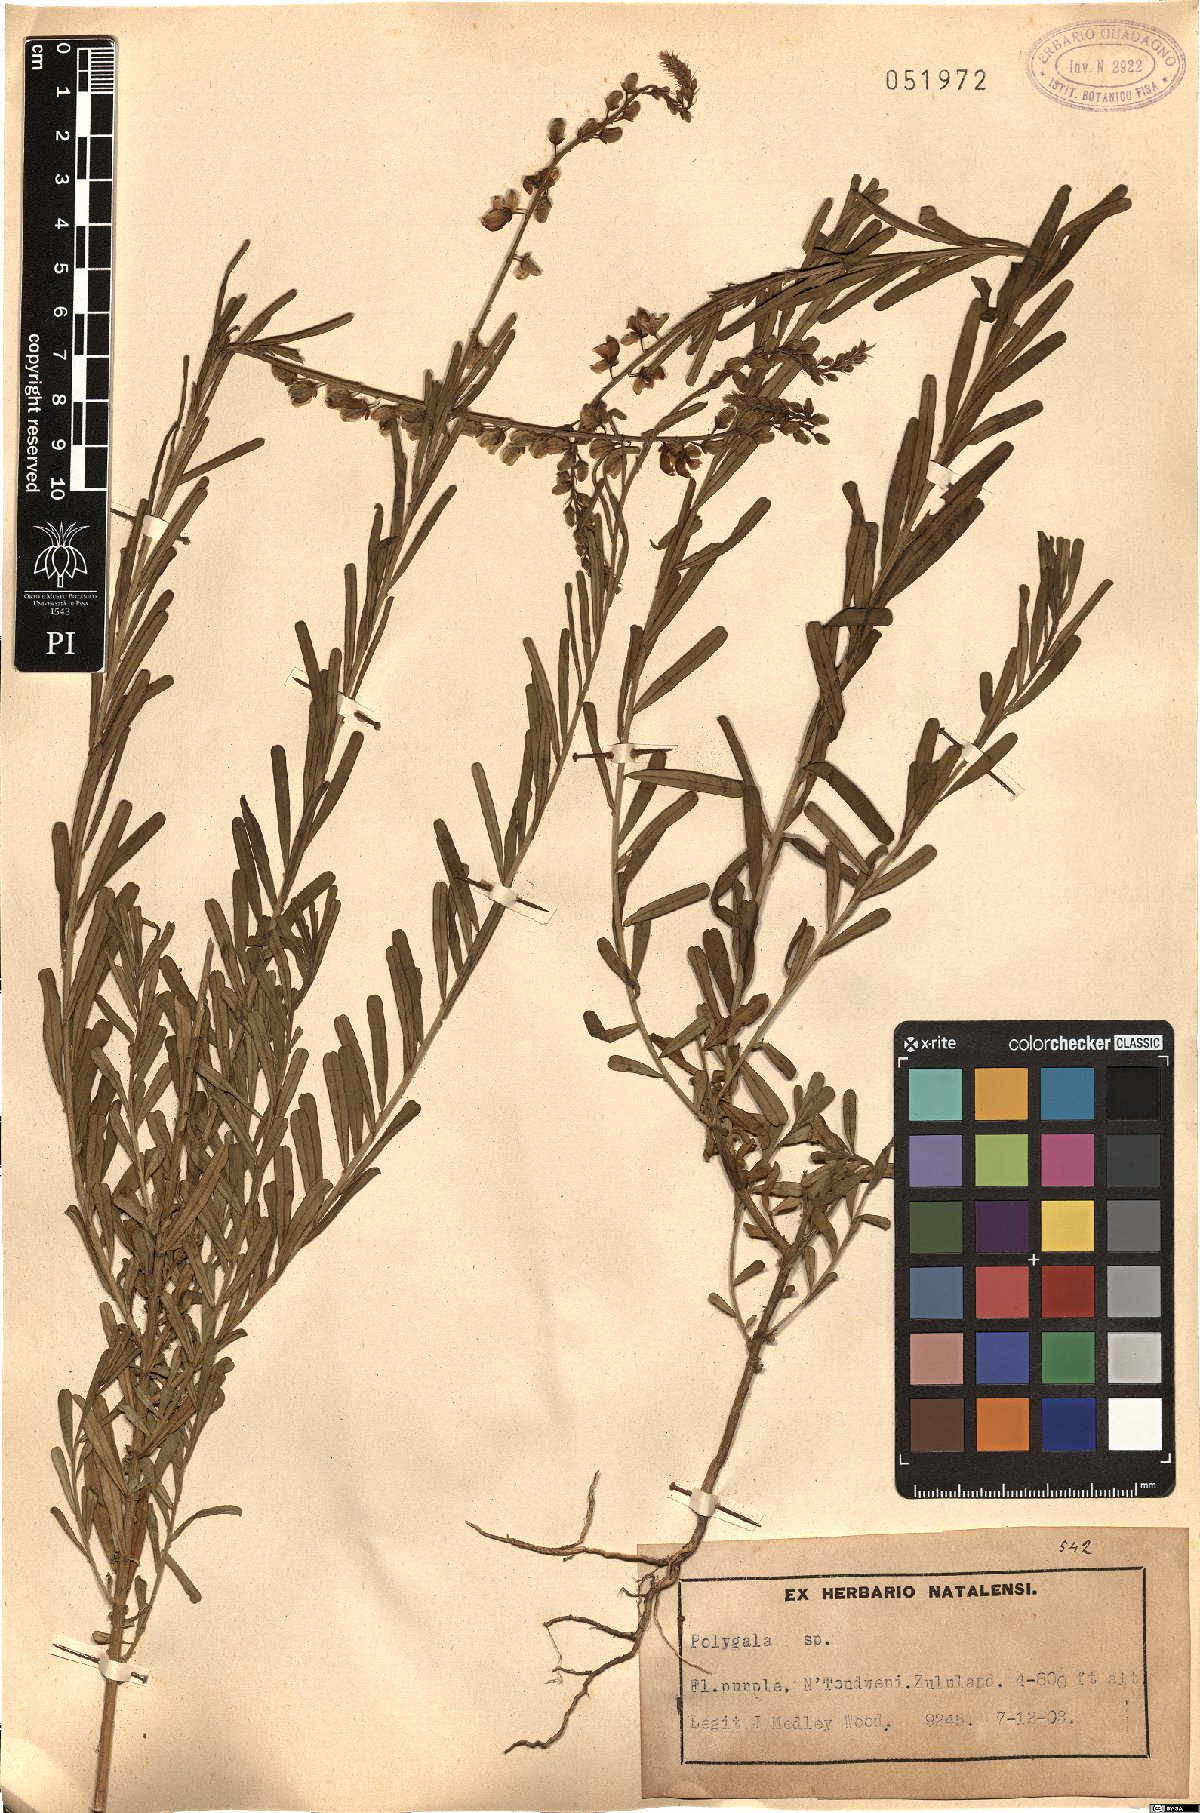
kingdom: Plantae
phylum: Tracheophyta
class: Magnoliopsida
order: Fabales
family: Polygalaceae
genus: Polygala
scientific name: Polygala
